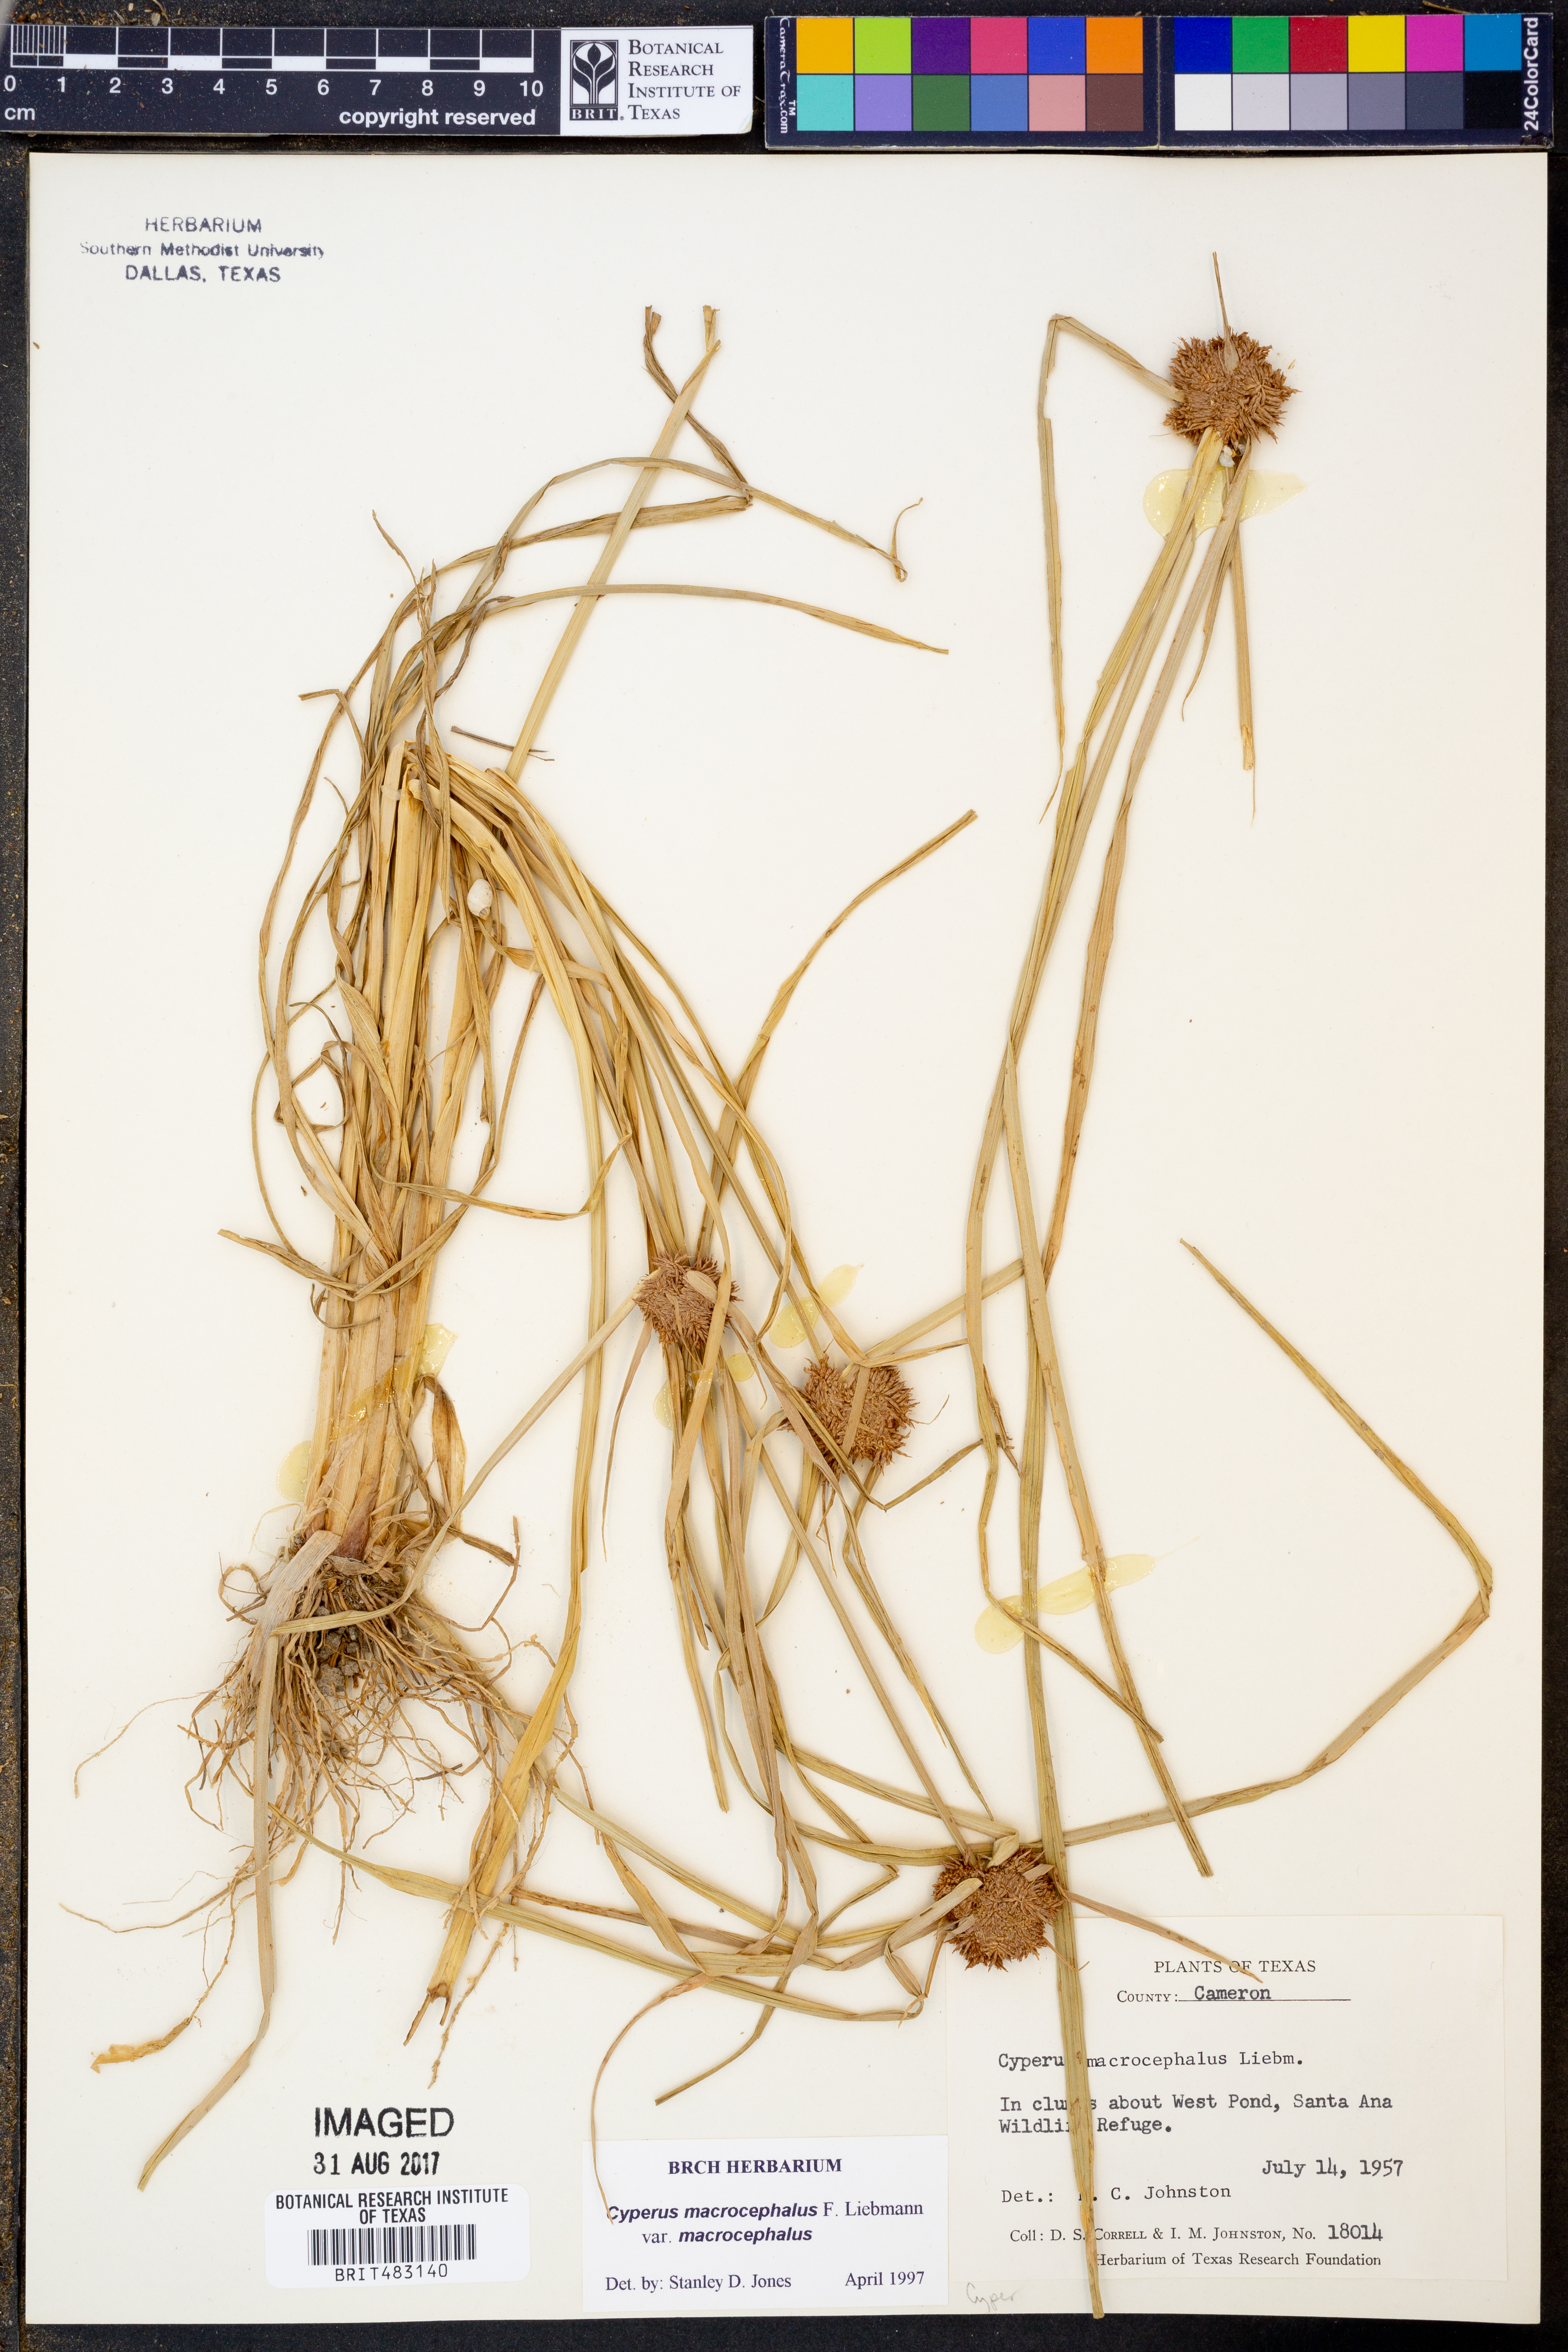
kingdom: Plantae
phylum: Tracheophyta
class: Liliopsida
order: Poales
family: Cyperaceae
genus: Cyperus
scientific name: Cyperus microcephalus
